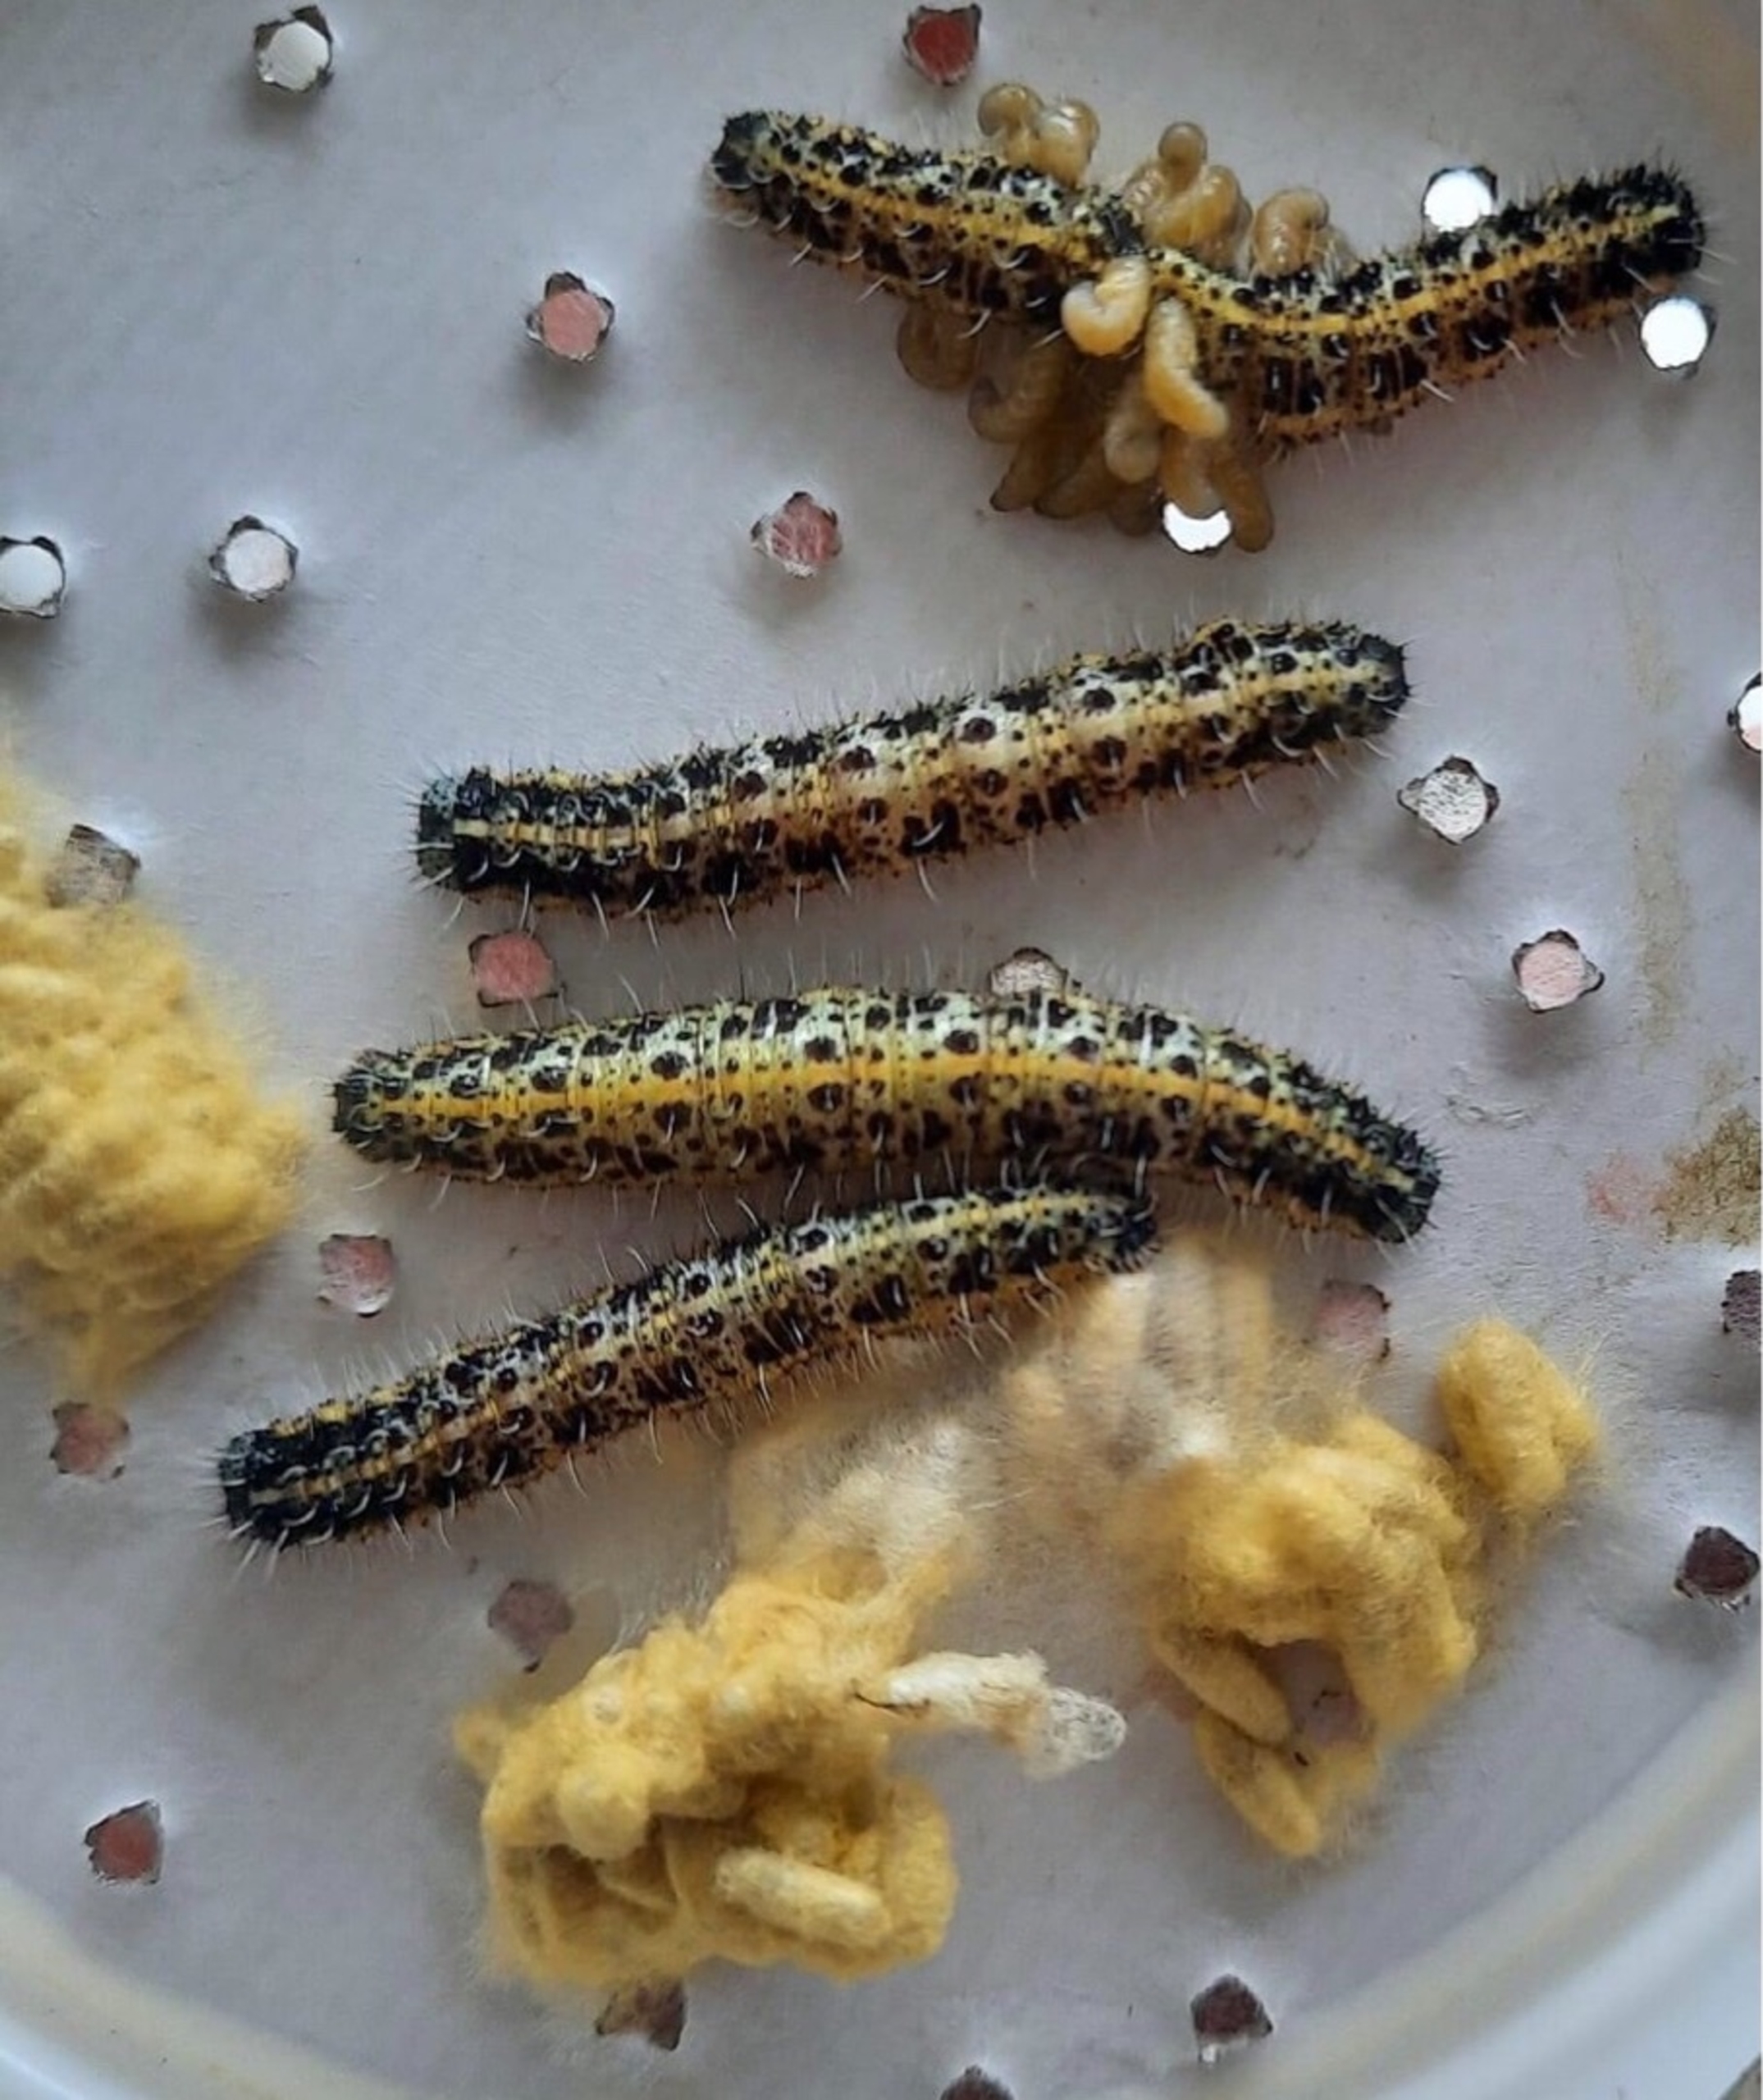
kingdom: Animalia
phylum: Arthropoda
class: Insecta
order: Lepidoptera
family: Pieridae
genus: Pieris
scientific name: Pieris brassicae
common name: Stor kålsommerfugl
